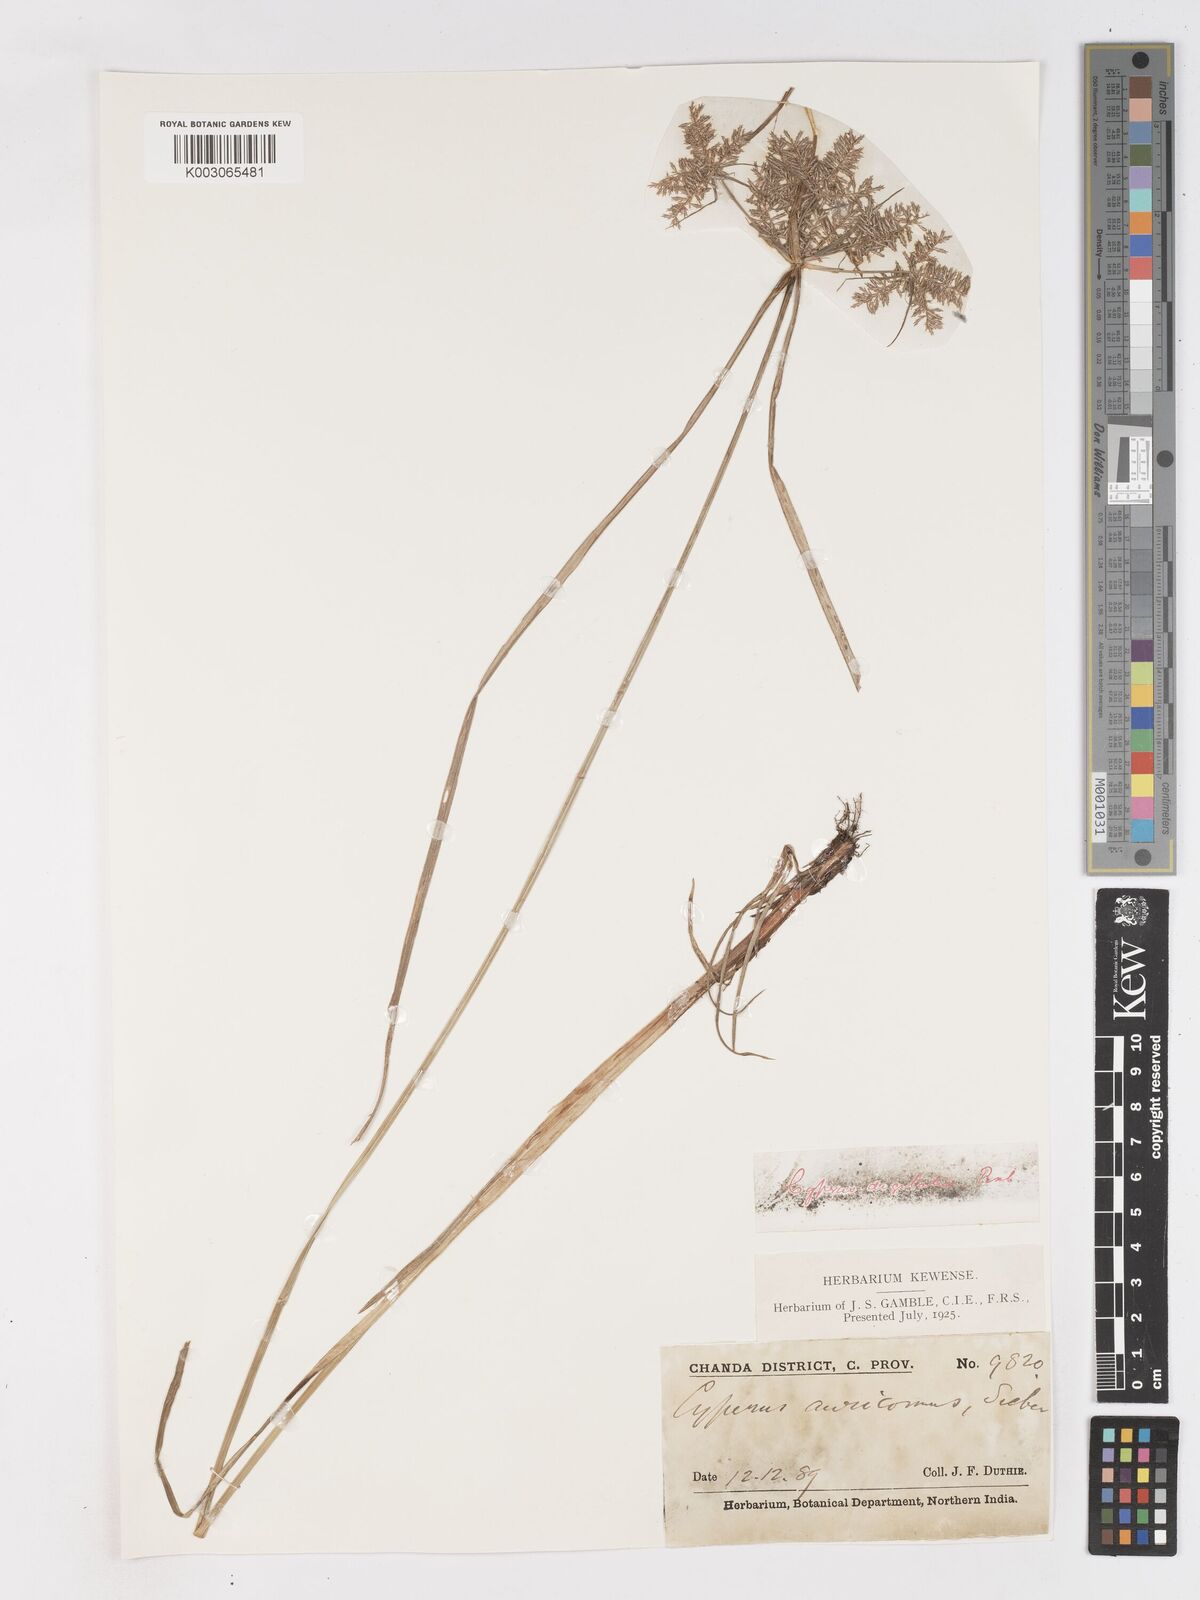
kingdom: Plantae
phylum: Tracheophyta
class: Liliopsida
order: Poales
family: Cyperaceae
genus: Cyperus
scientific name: Cyperus digitatus
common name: Finger flatsedge
